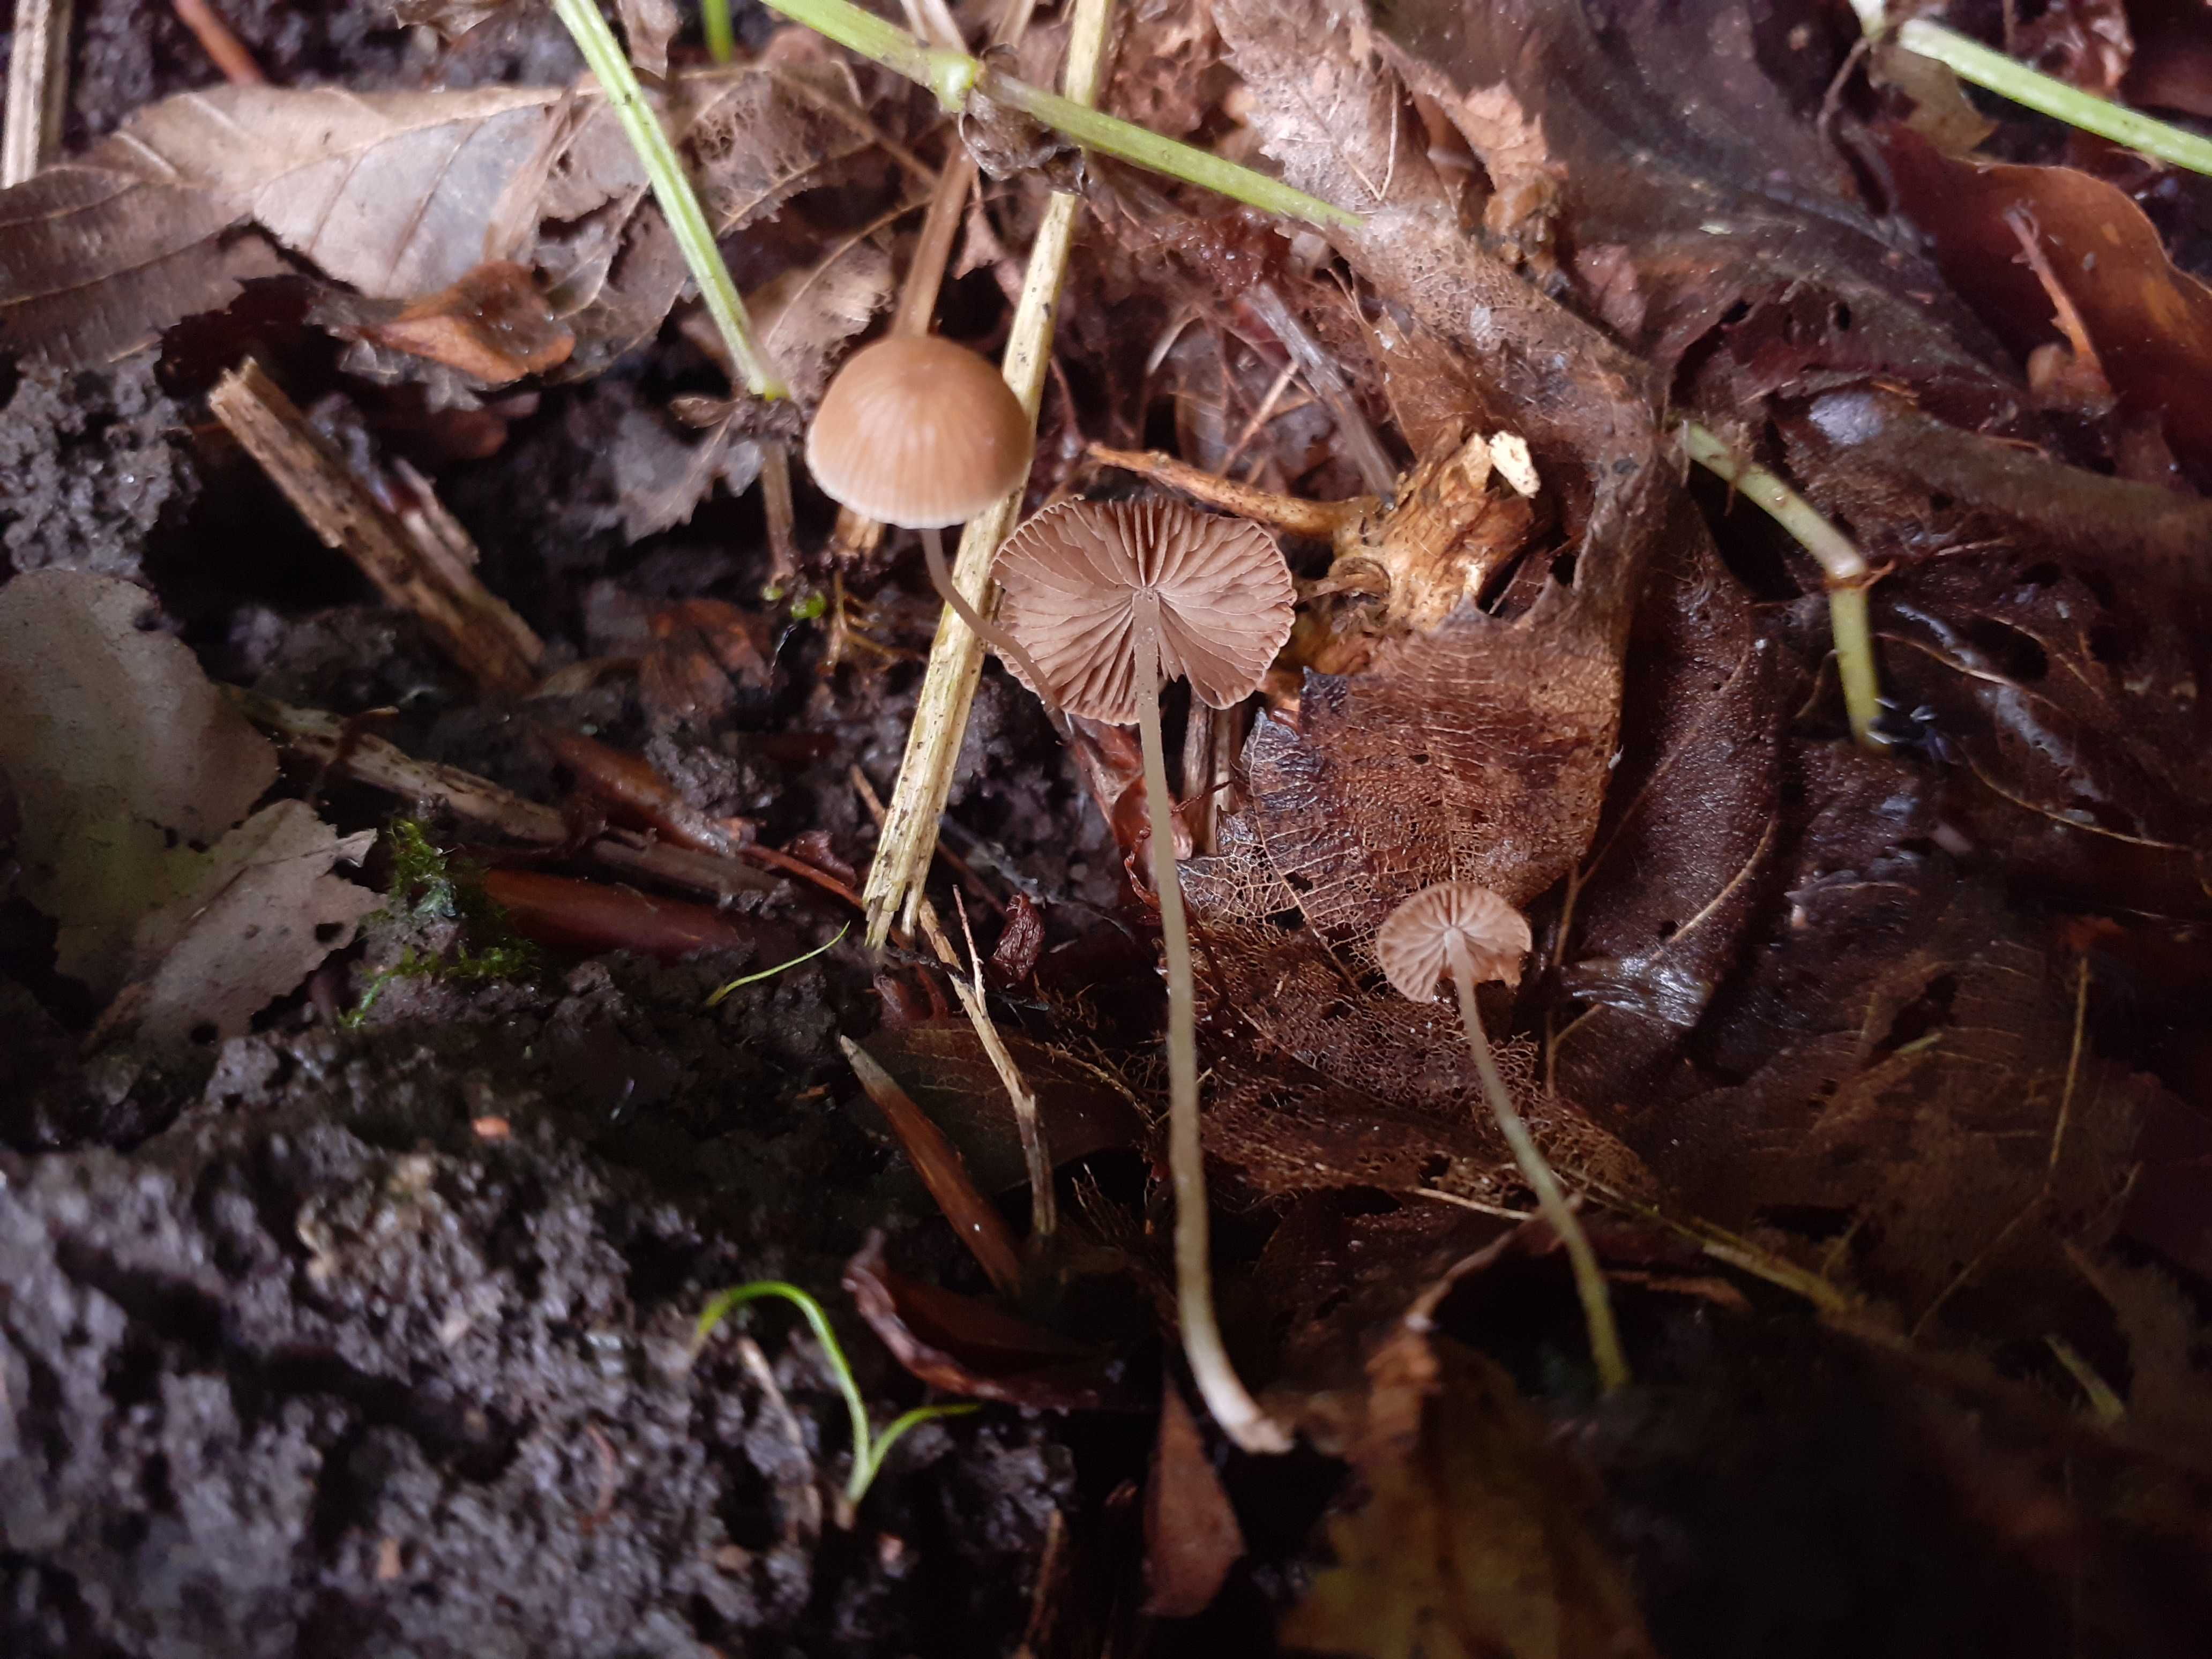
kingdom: Fungi
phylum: Basidiomycota
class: Agaricomycetes
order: Agaricales
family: Psathyrellaceae
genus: Psathyrella
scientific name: Psathyrella effibulata
